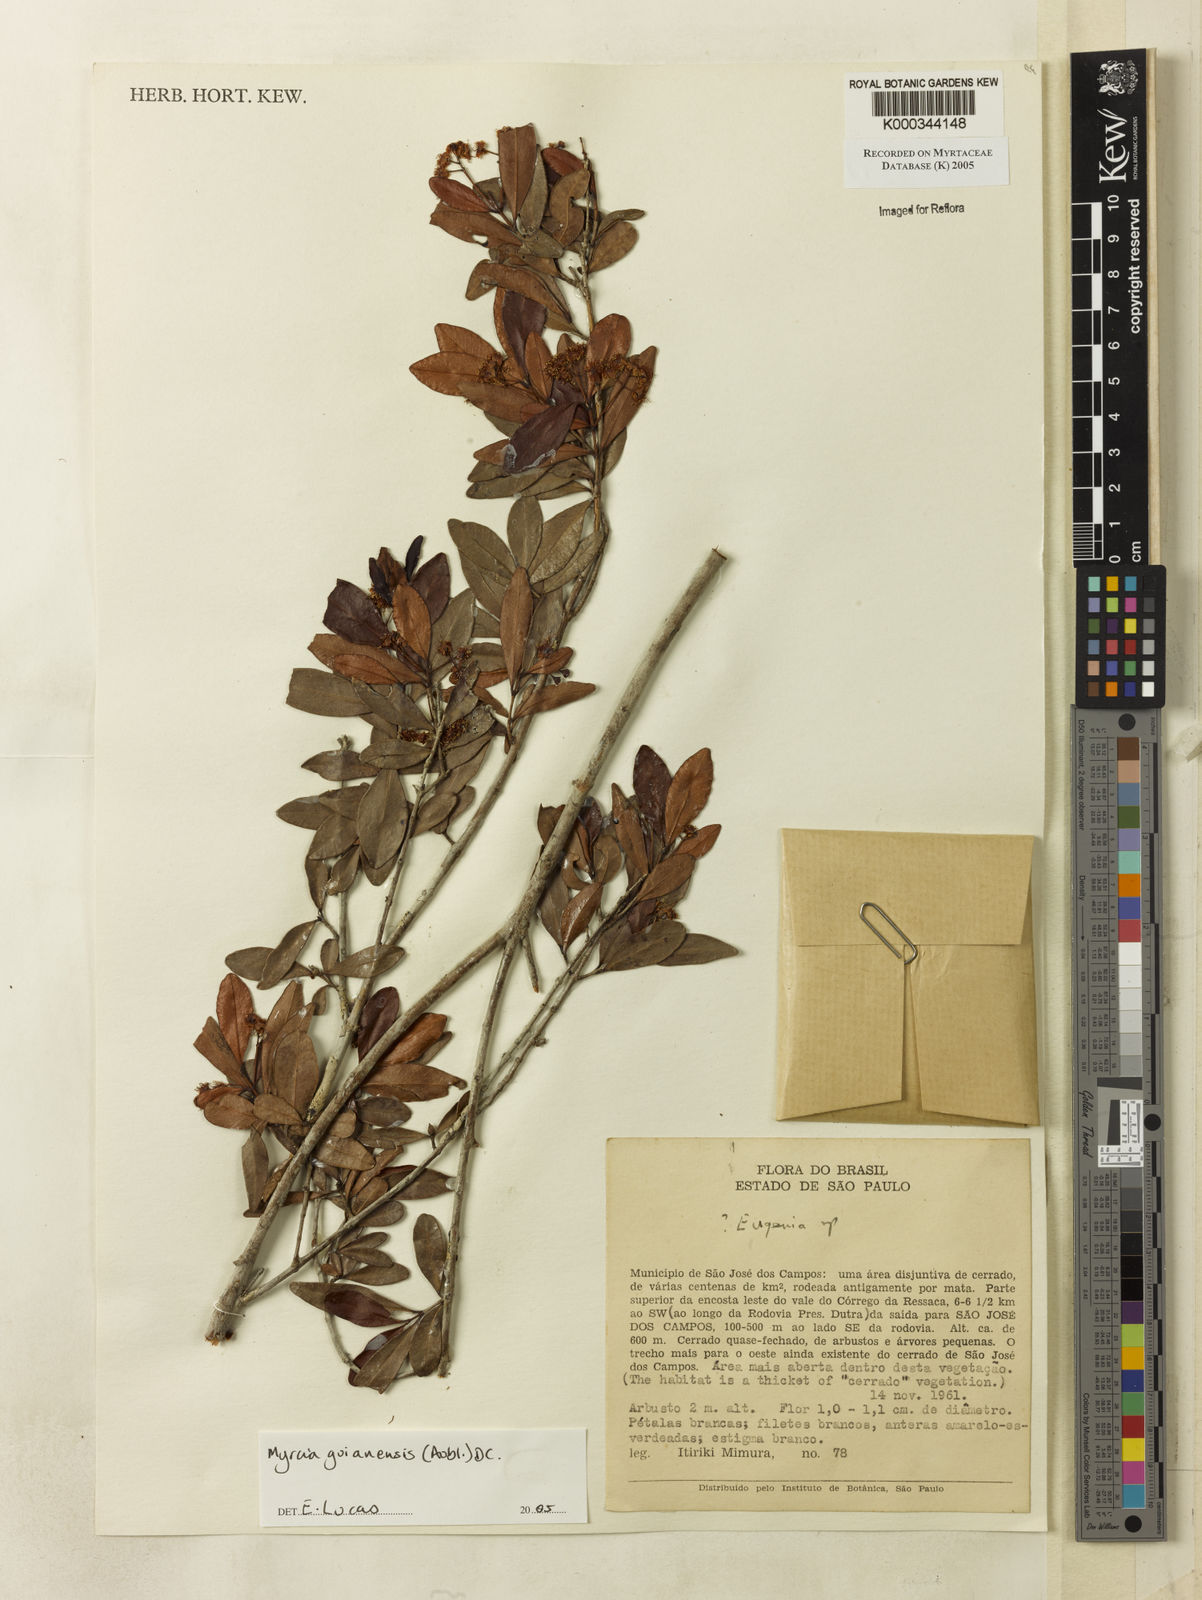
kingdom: Plantae
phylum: Tracheophyta
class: Magnoliopsida
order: Myrtales
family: Myrtaceae
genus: Myrcia
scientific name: Myrcia guianensis
